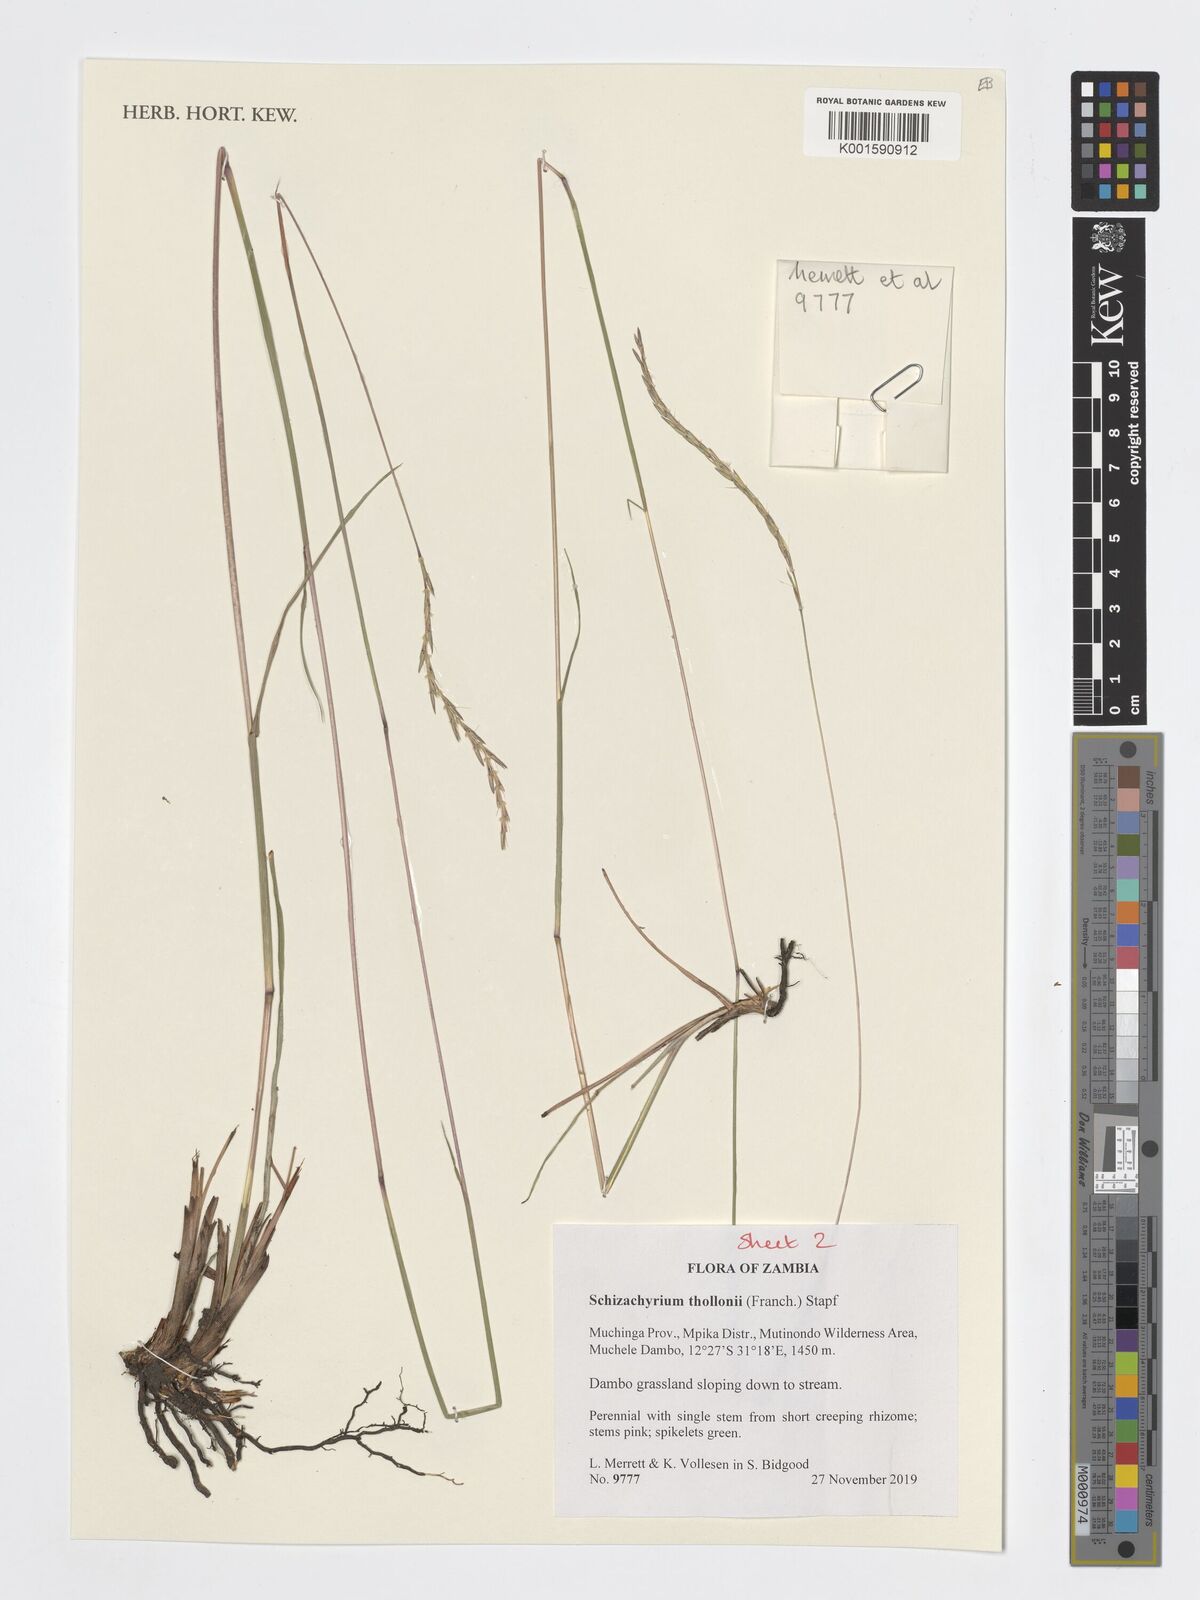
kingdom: Plantae
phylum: Tracheophyta
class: Liliopsida
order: Poales
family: Poaceae
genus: Schizachyrium
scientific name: Schizachyrium thollonii
